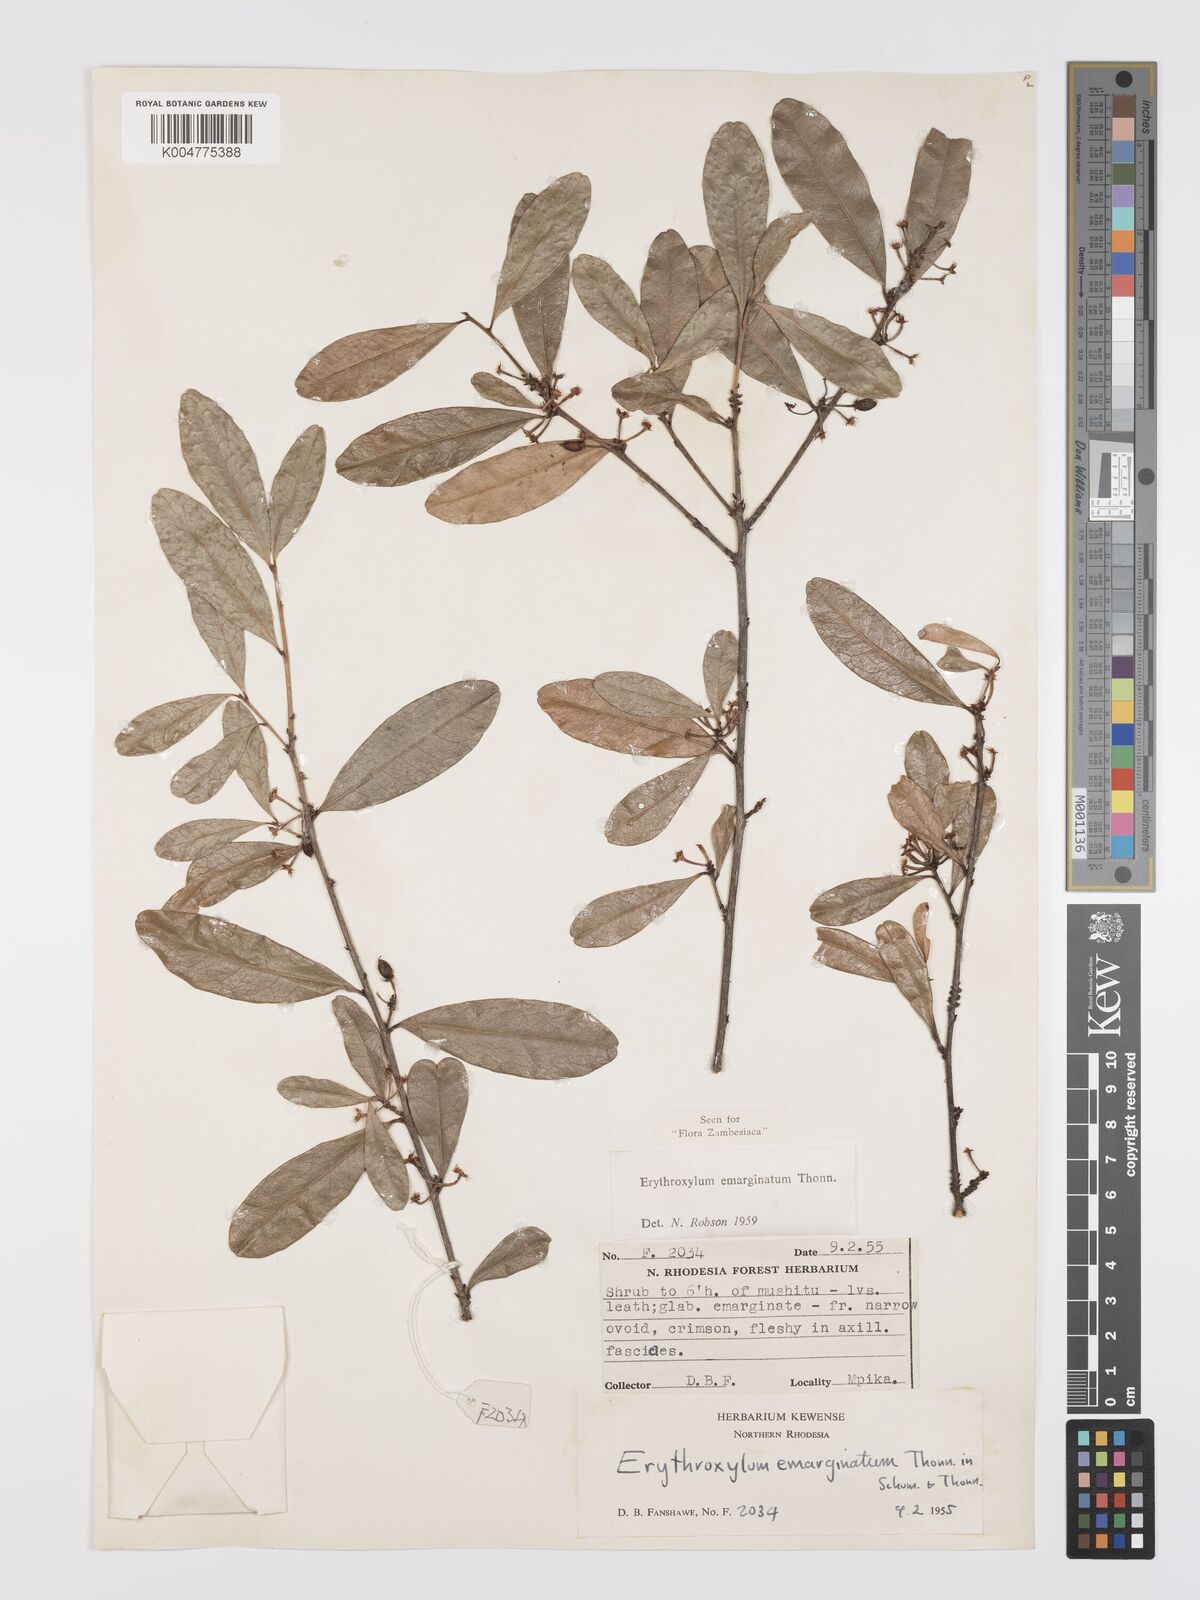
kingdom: Plantae
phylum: Tracheophyta
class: Magnoliopsida
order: Malpighiales
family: Erythroxylaceae
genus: Erythroxylum
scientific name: Erythroxylum emarginatum
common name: African coca-tree
